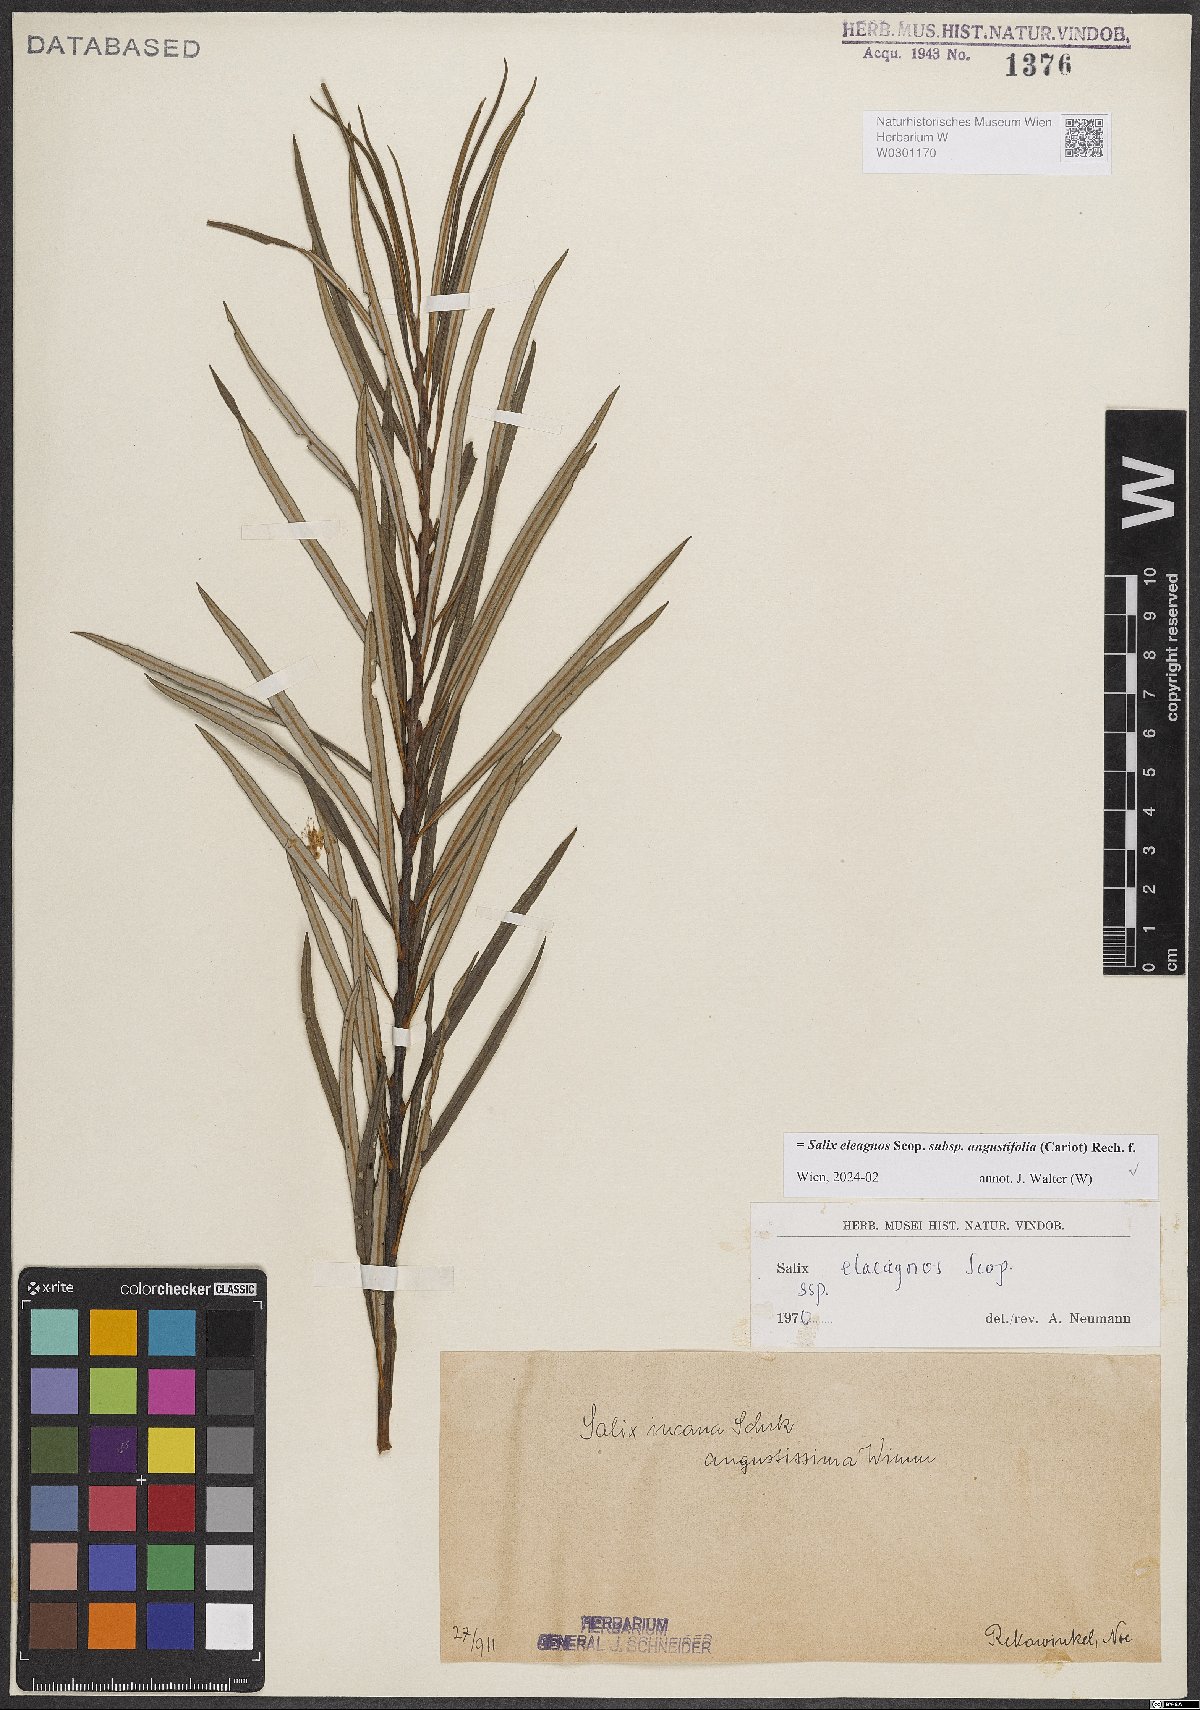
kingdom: Plantae
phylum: Tracheophyta
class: Magnoliopsida
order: Malpighiales
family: Salicaceae
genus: Salix
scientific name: Salix eleagnos
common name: Elaeagnus willow
